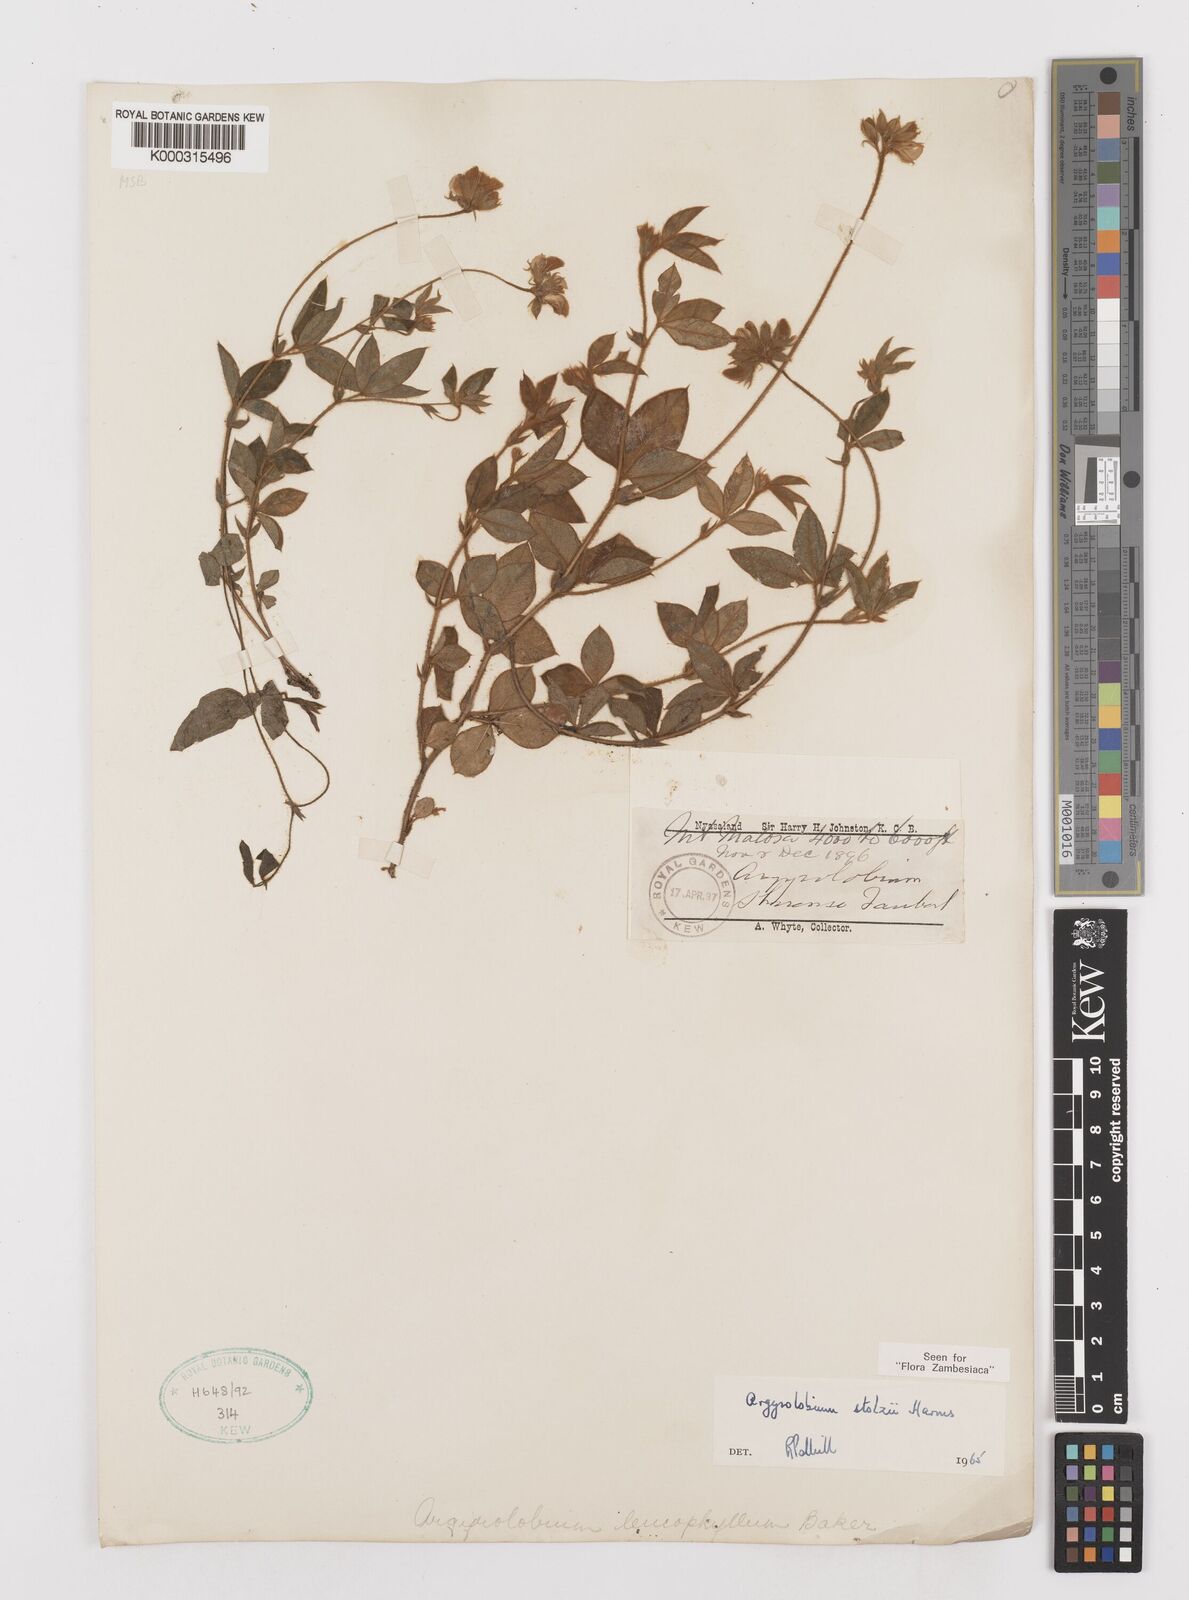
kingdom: Plantae
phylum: Tracheophyta
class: Magnoliopsida
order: Fabales
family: Fabaceae
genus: Argyrolobium
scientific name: Argyrolobium stolzii
